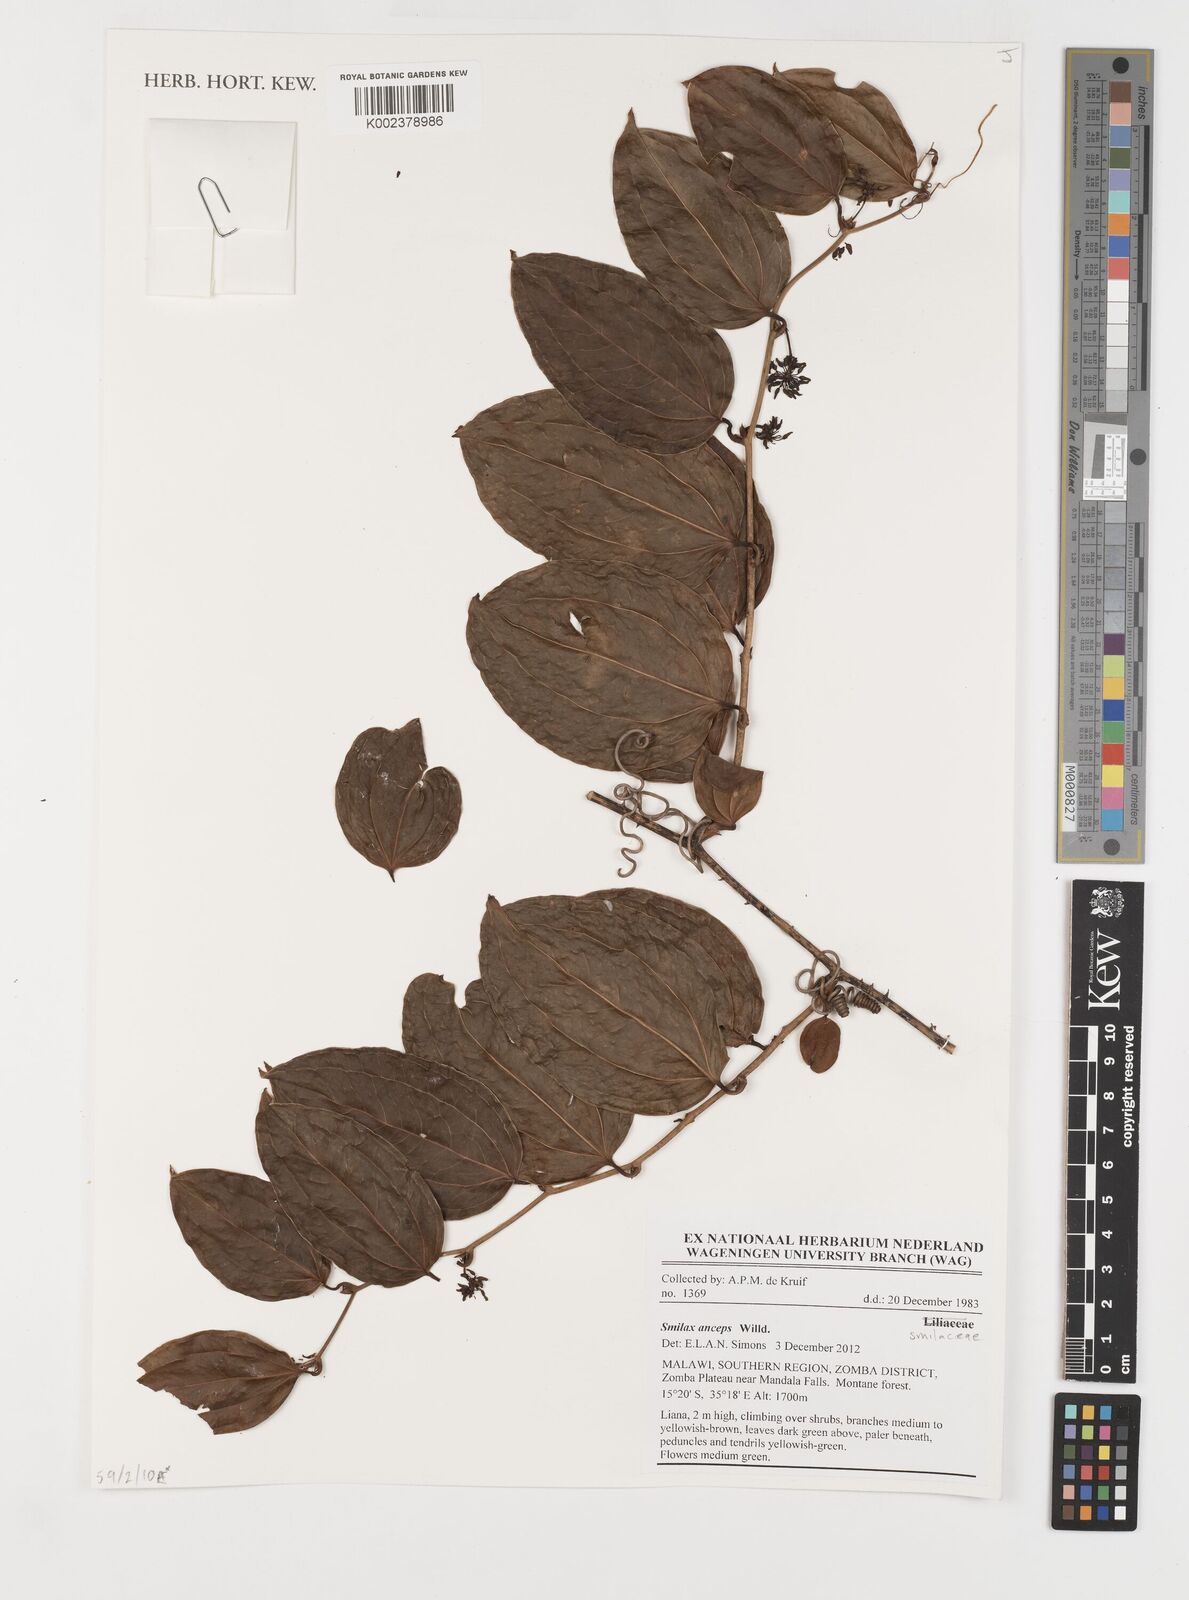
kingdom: Plantae
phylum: Tracheophyta
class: Liliopsida
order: Liliales
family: Smilacaceae
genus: Smilax
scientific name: Smilax anceps
